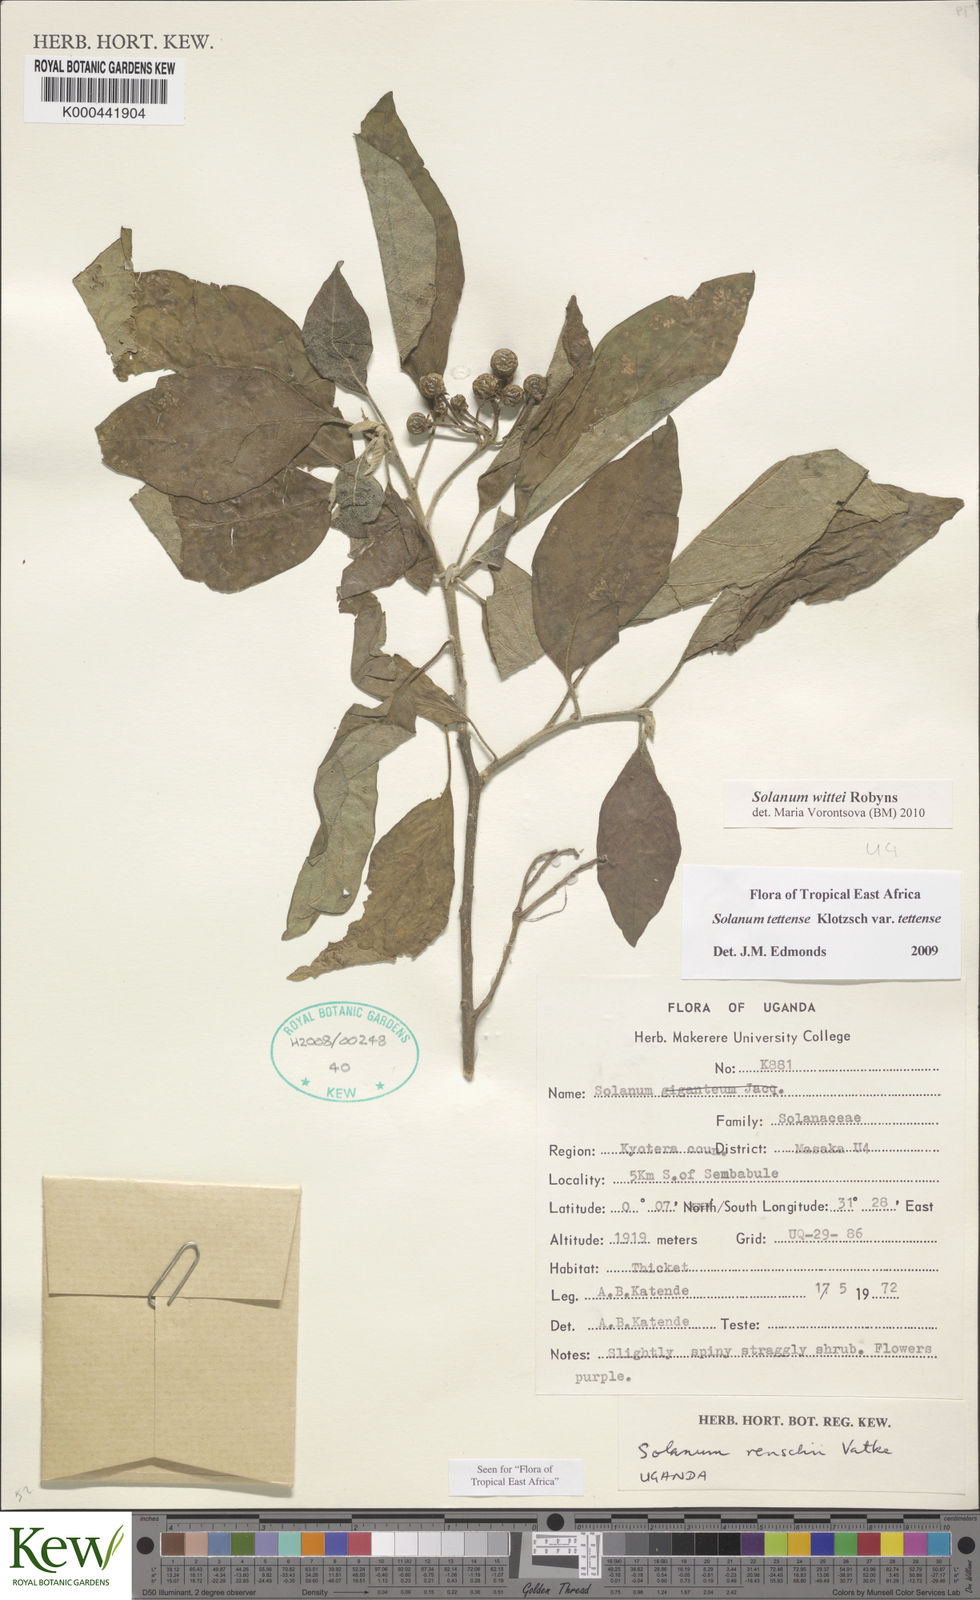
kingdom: Plantae
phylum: Tracheophyta
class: Magnoliopsida
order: Solanales
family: Solanaceae
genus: Solanum
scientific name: Solanum wittei
